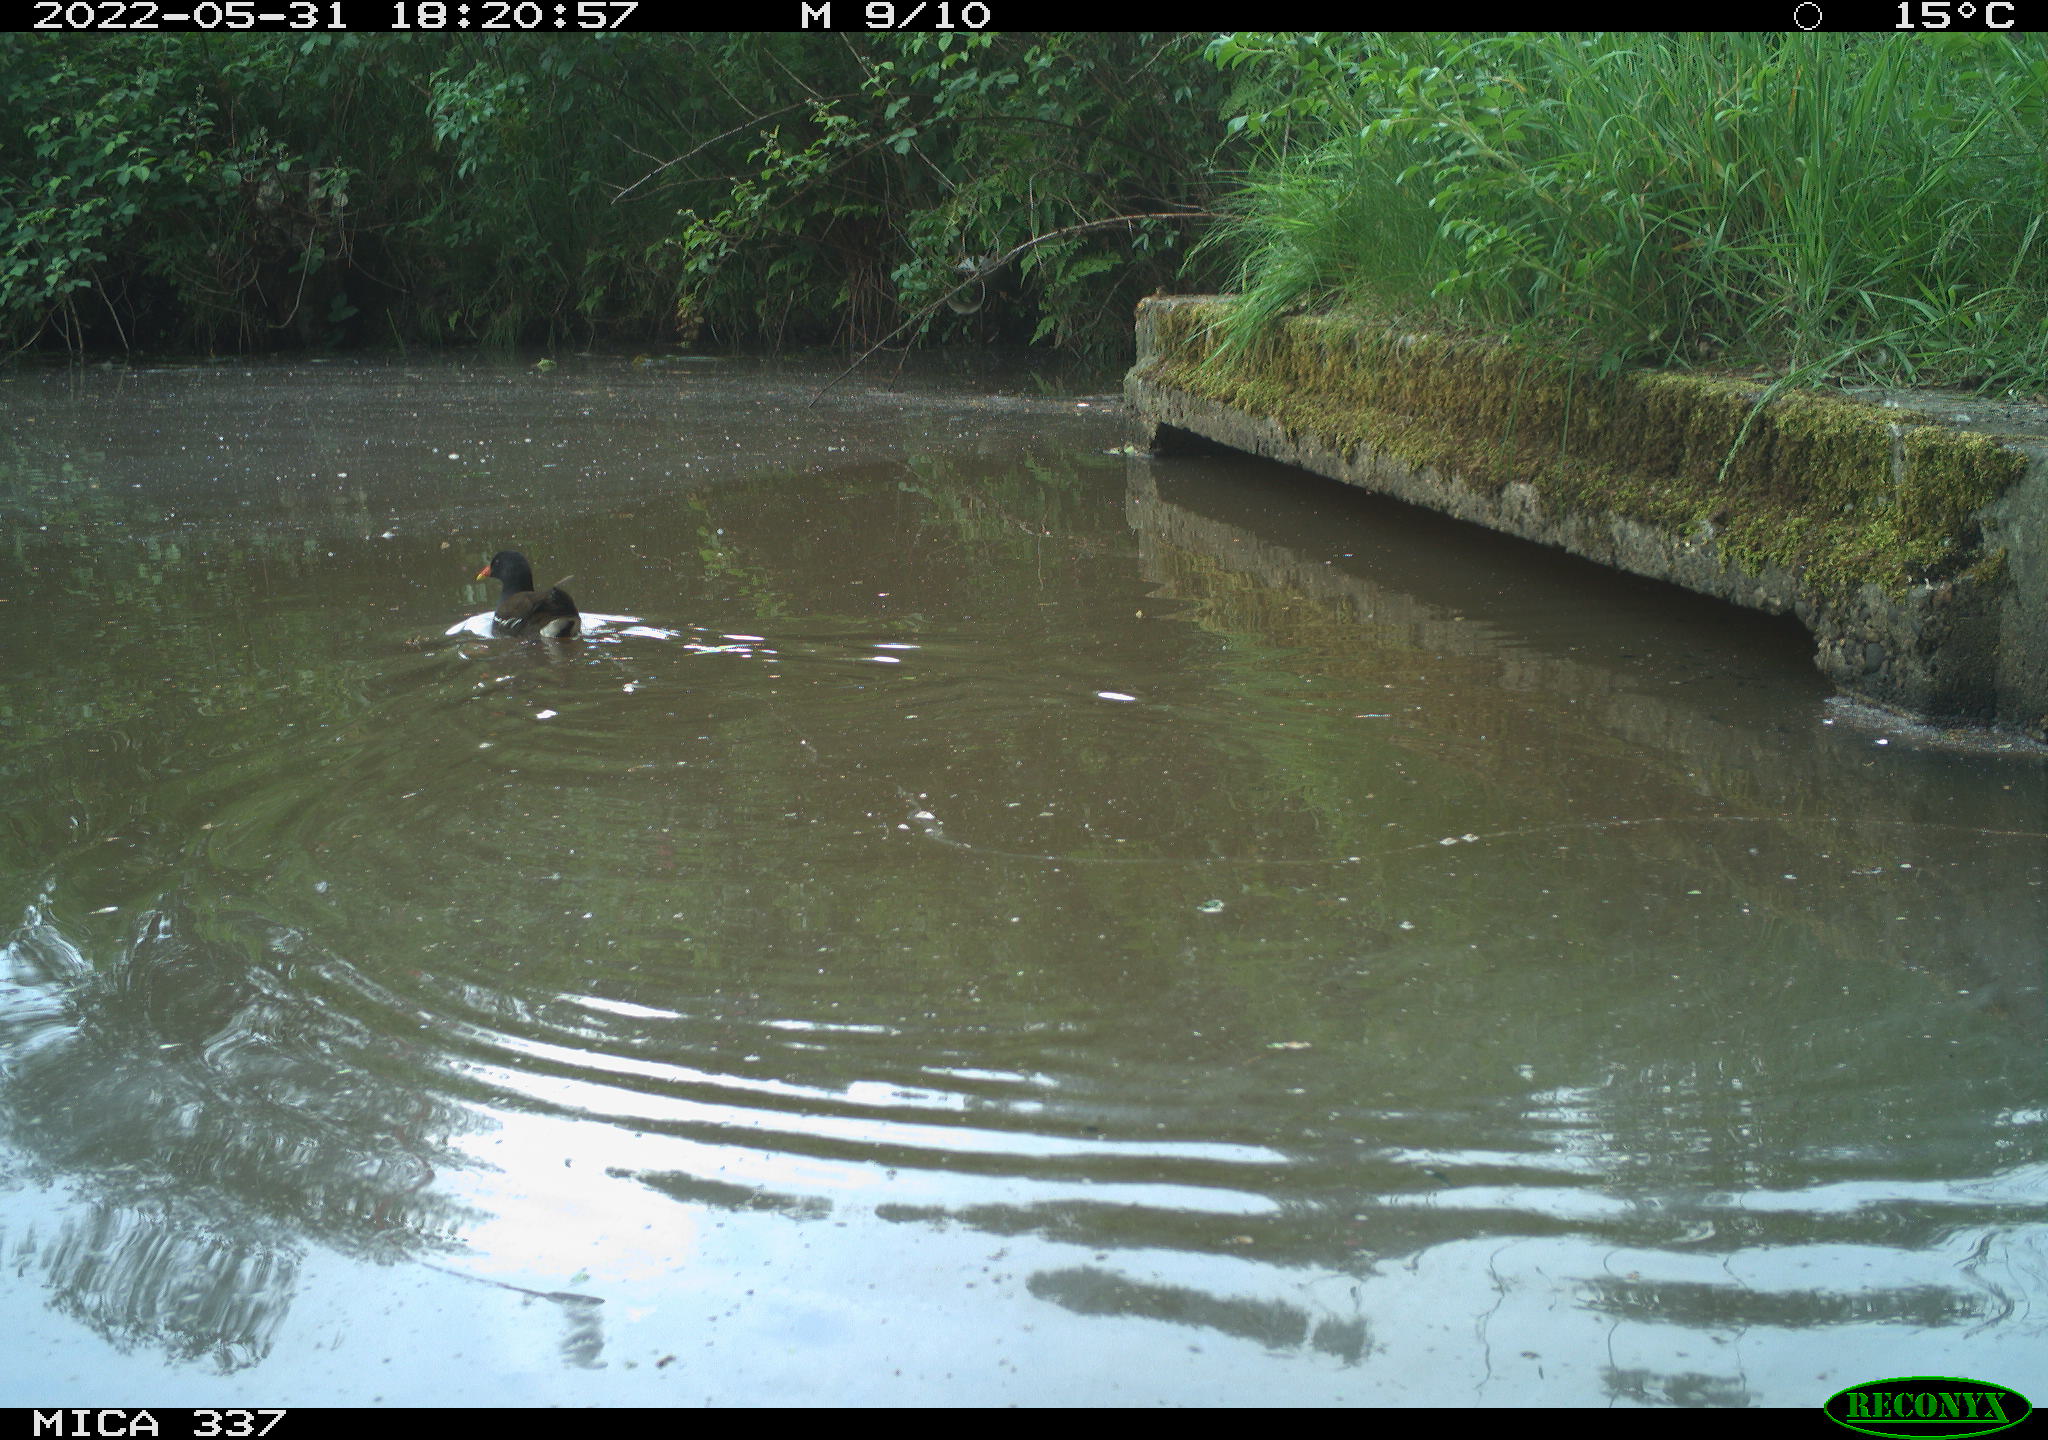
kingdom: Animalia
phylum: Chordata
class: Aves
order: Gruiformes
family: Rallidae
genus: Gallinula
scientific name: Gallinula chloropus
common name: Common moorhen
